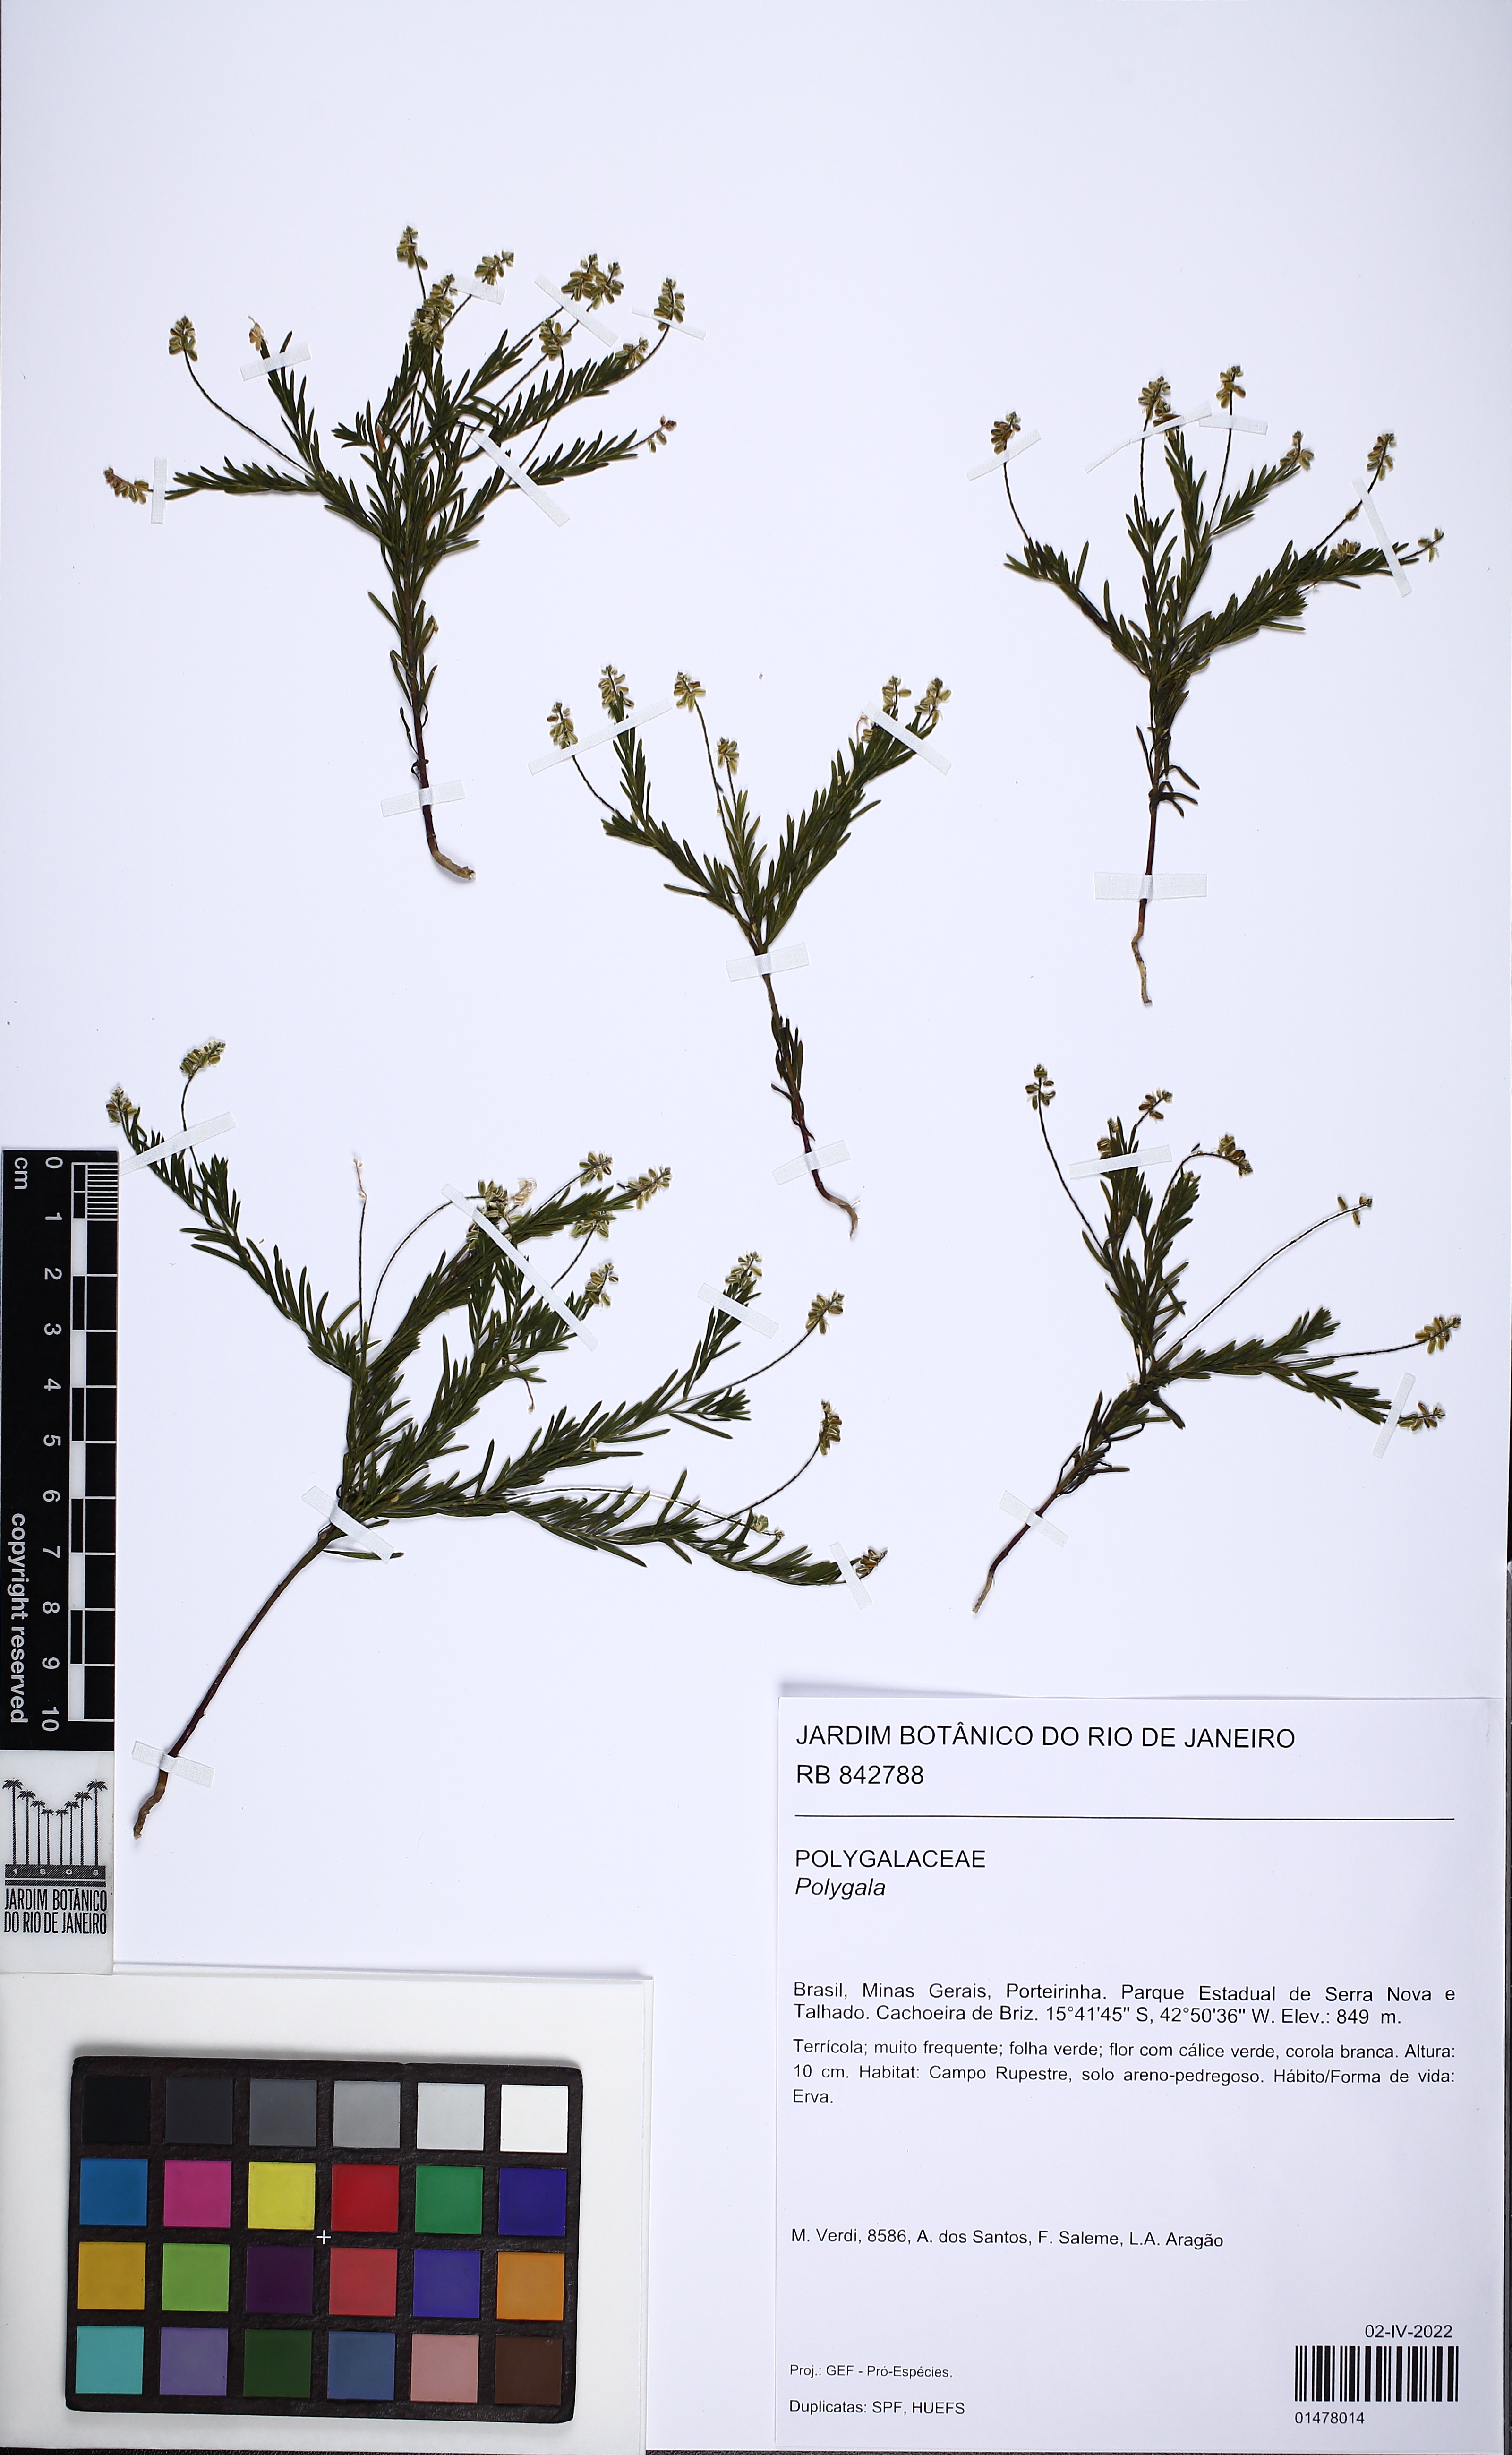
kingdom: Plantae
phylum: Tracheophyta
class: Magnoliopsida
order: Fabales
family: Polygalaceae
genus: Polygala
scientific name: Polygala
